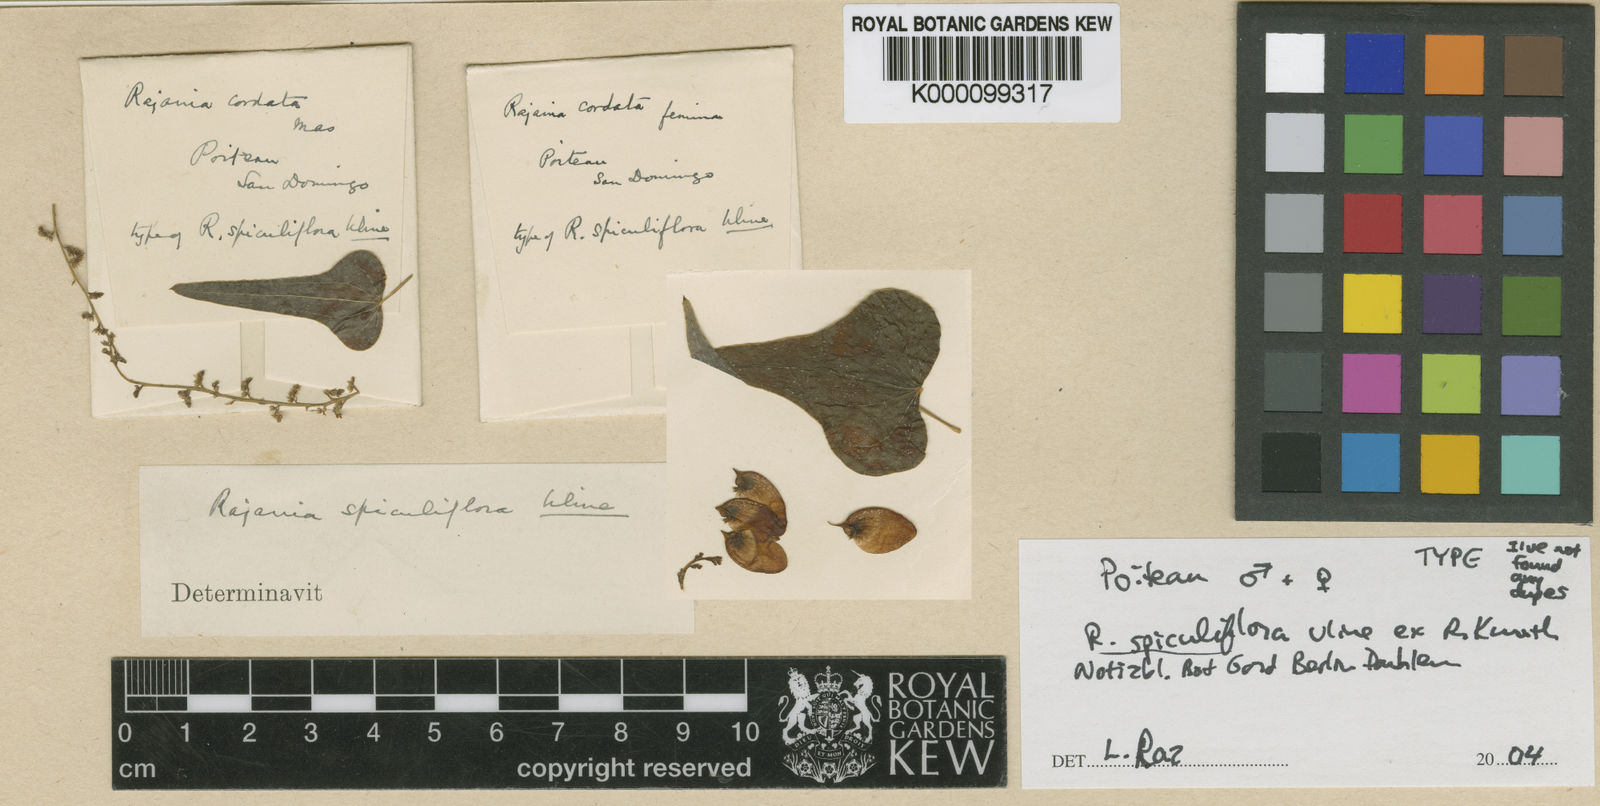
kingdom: Plantae
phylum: Tracheophyta
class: Liliopsida
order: Dioscoreales
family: Dioscoreaceae
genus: Dioscorea
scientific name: Dioscorea spiculiflora
